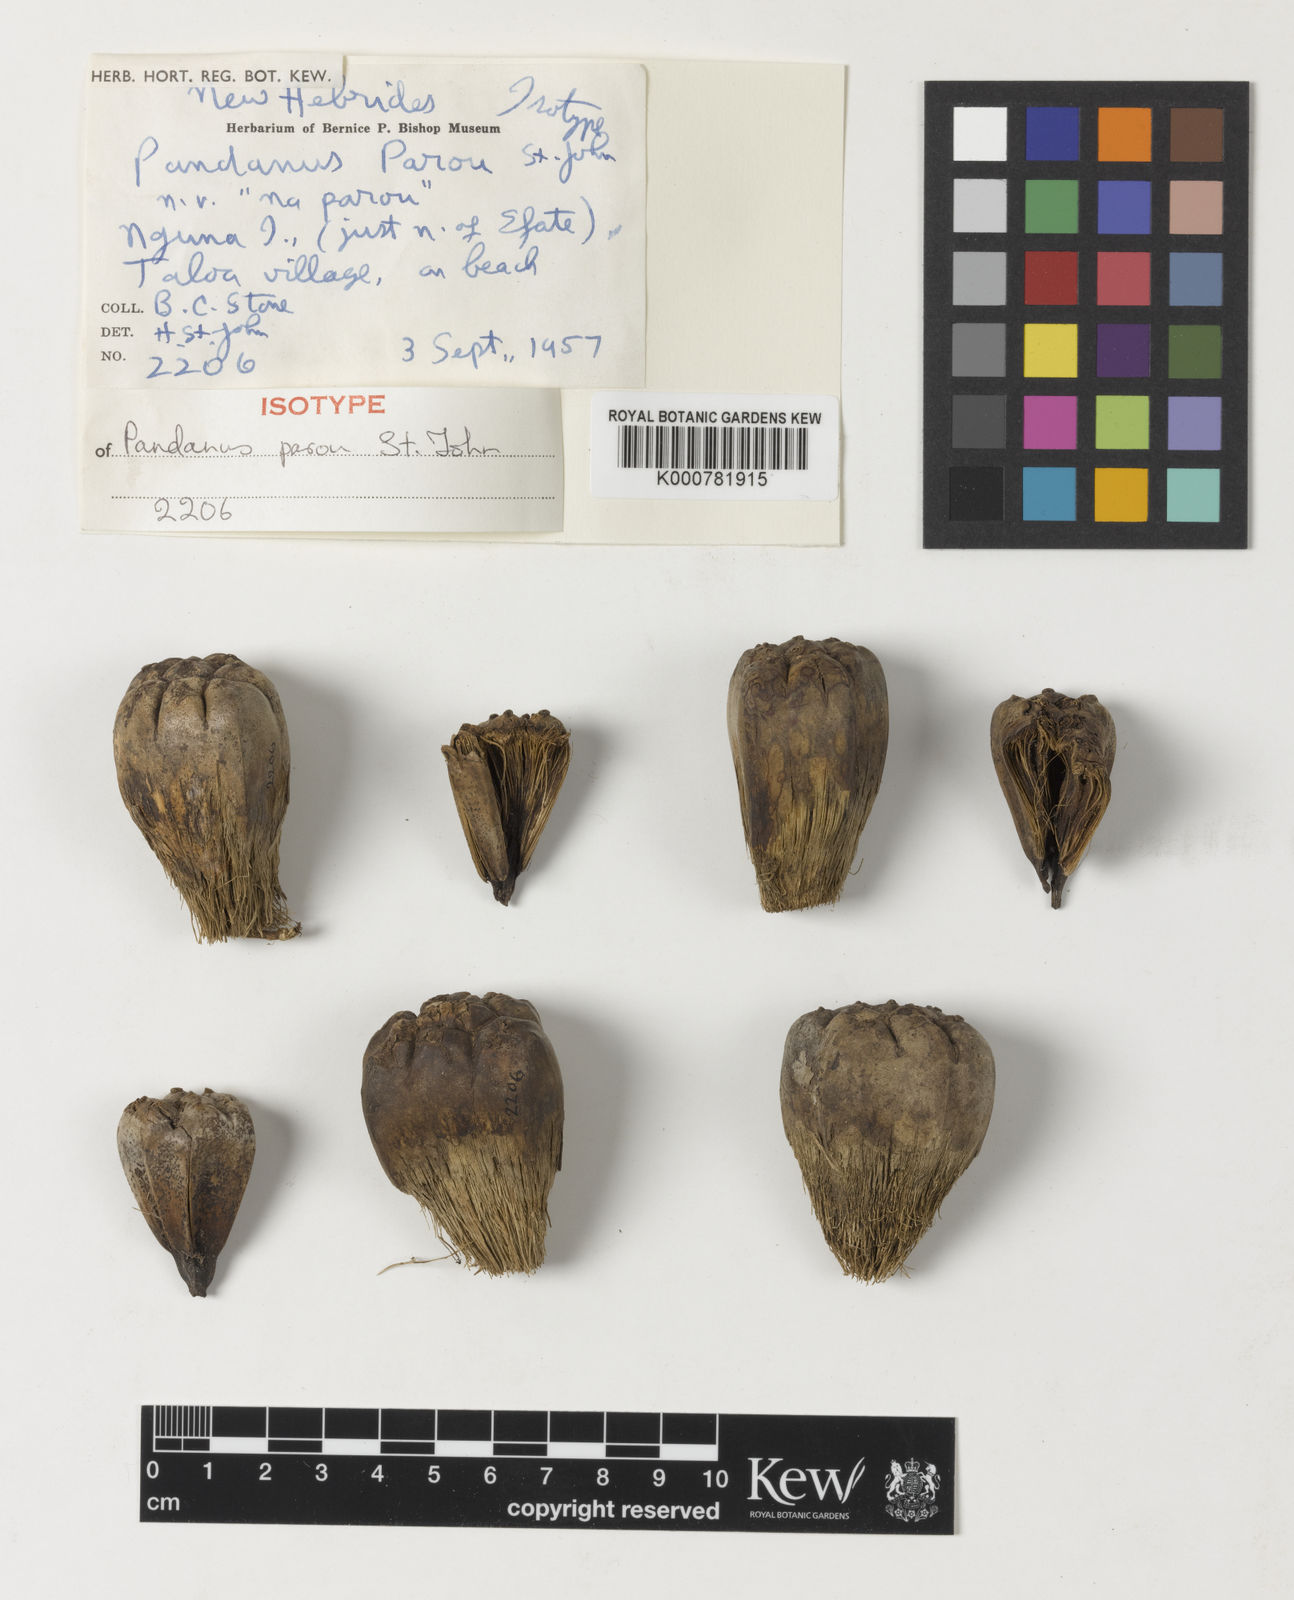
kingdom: Plantae
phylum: Tracheophyta
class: Liliopsida
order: Pandanales
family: Pandanaceae
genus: Pandanus
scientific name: Pandanus parou
